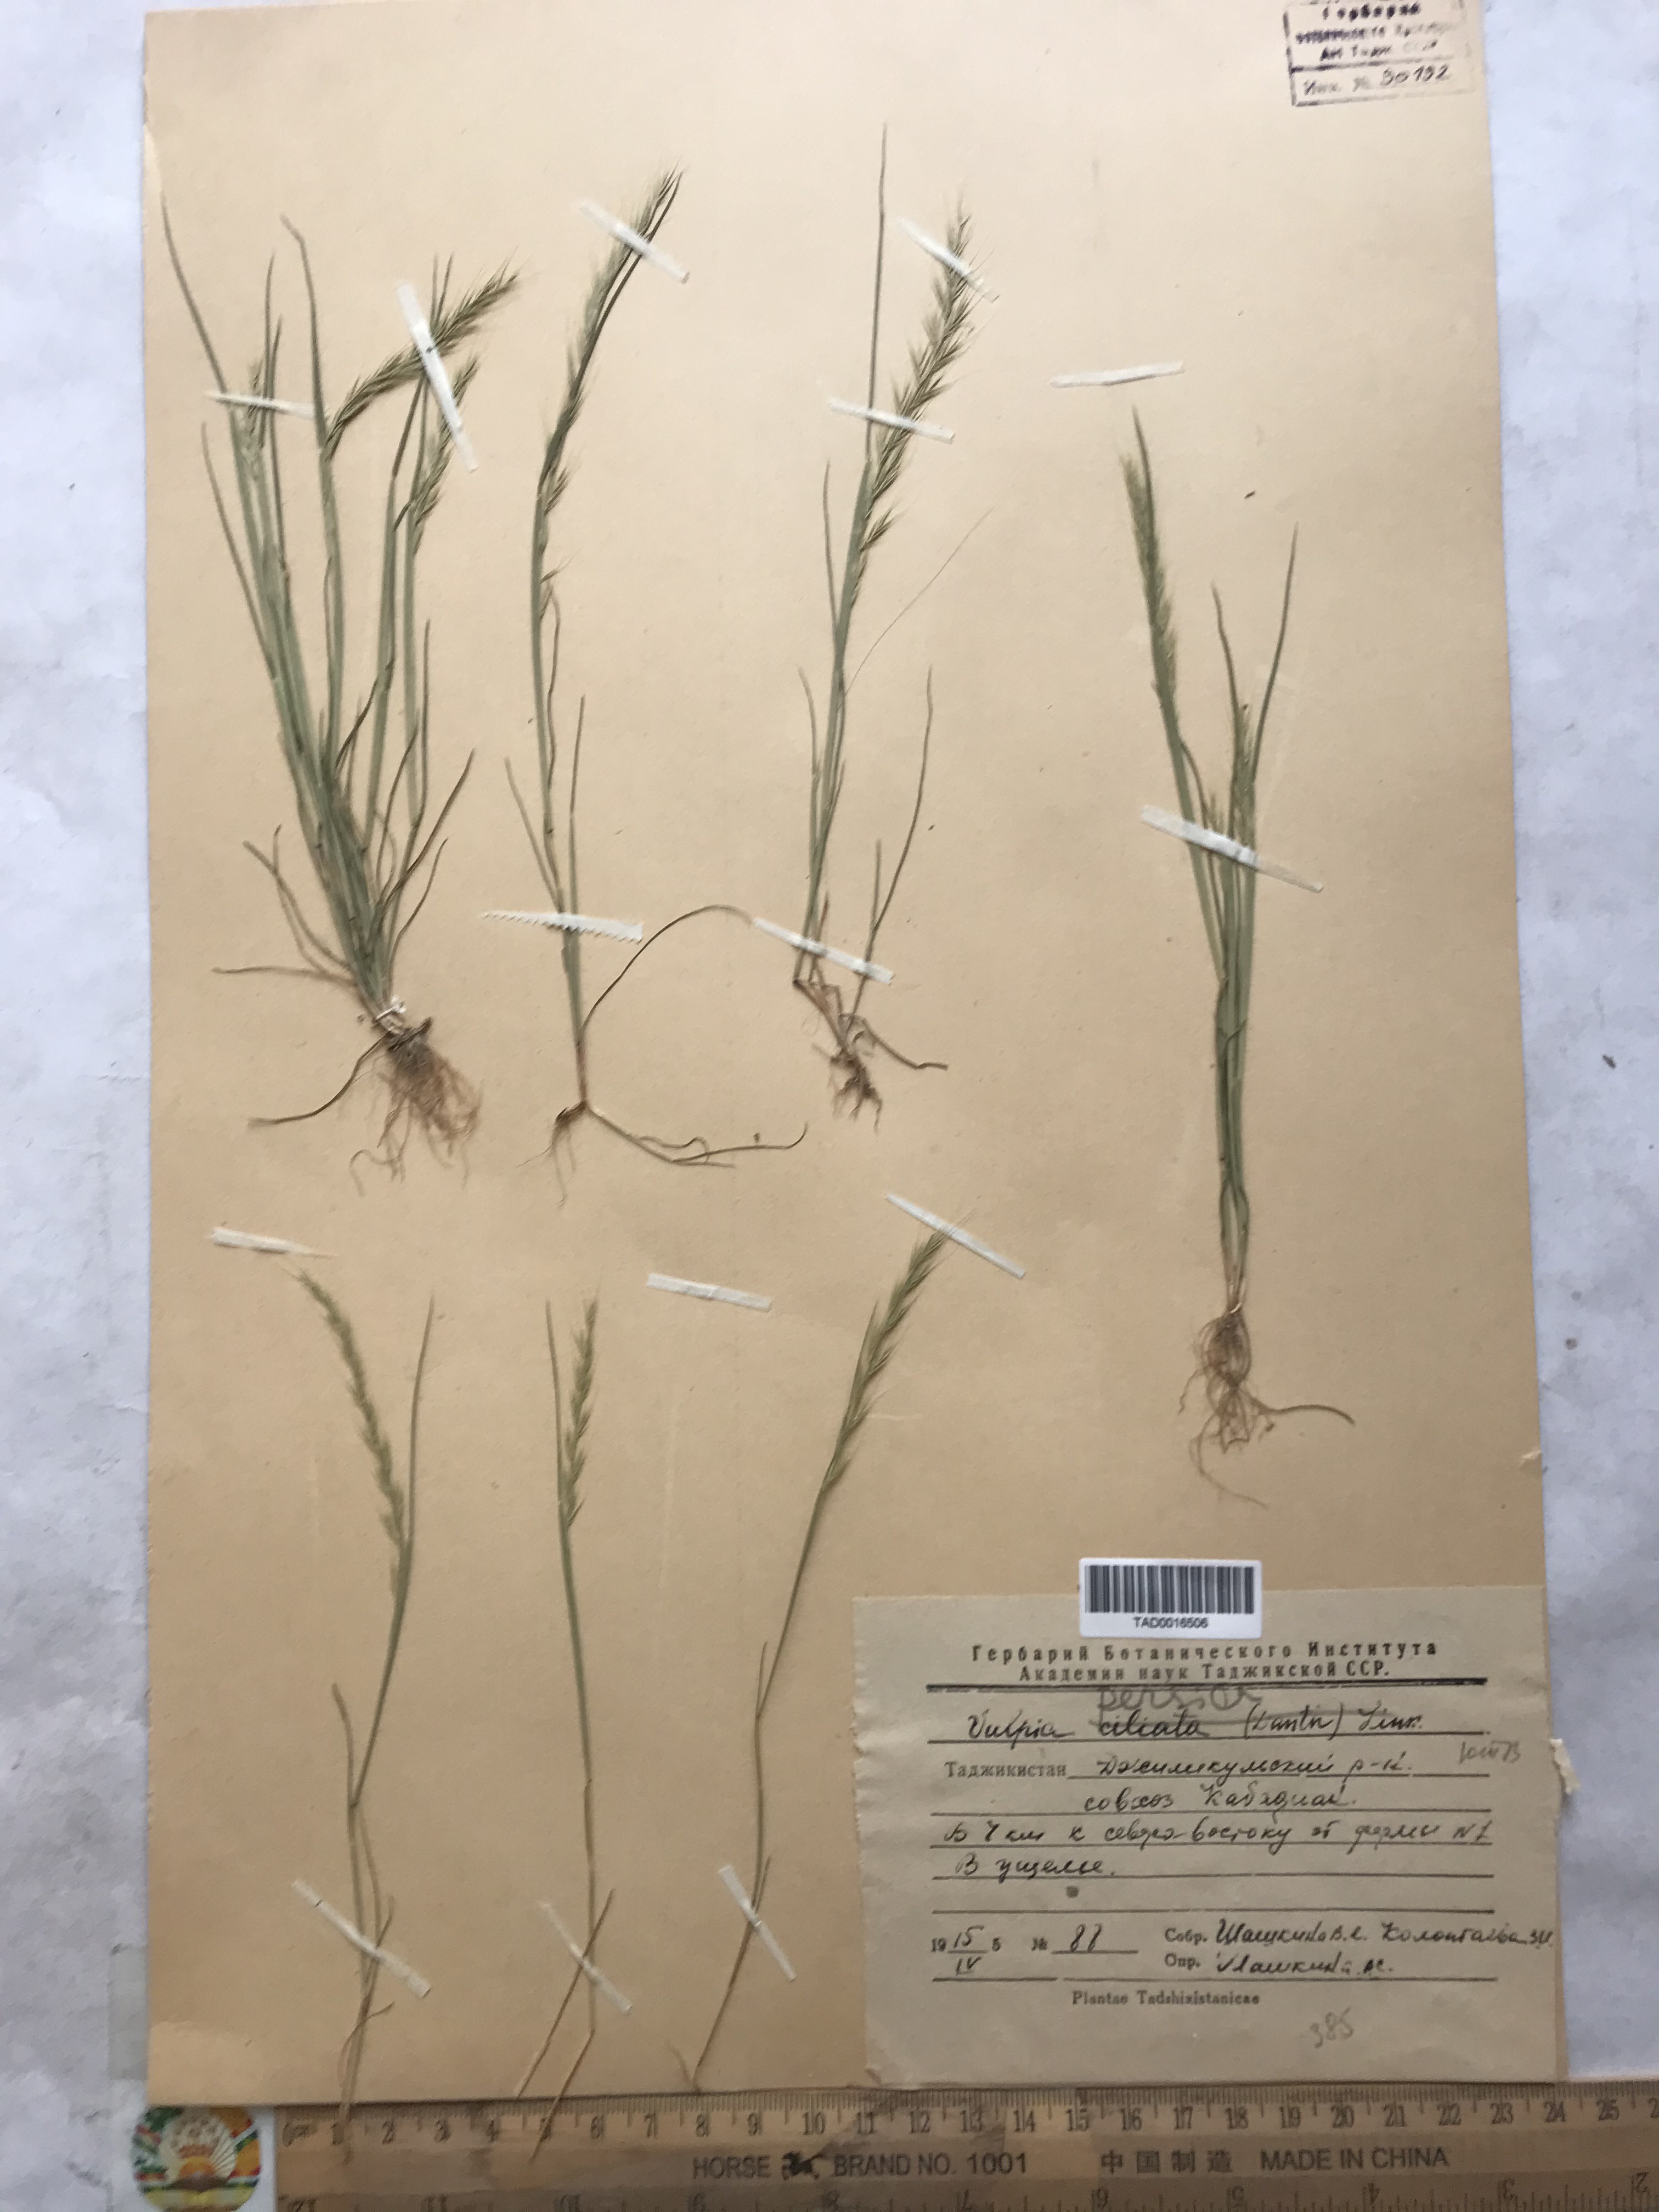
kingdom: Plantae
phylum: Tracheophyta
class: Liliopsida
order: Poales
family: Poaceae
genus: Festuca
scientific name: Festuca Vulpia persica
